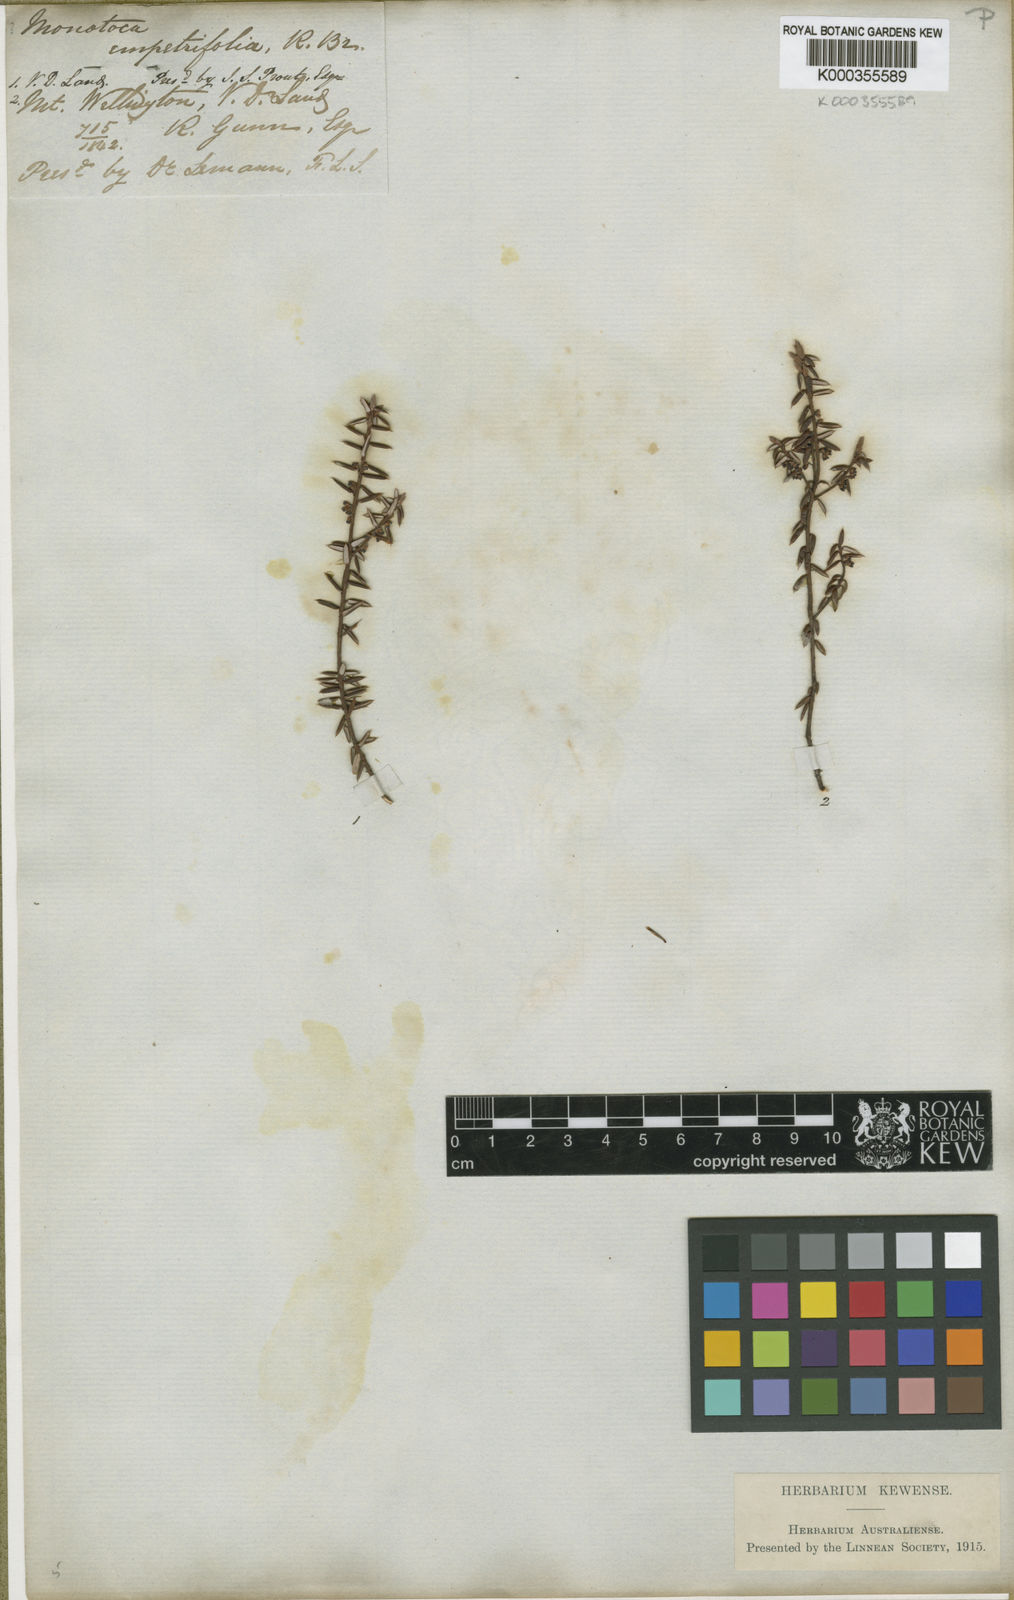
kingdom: Plantae
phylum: Tracheophyta
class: Magnoliopsida
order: Ericales
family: Ericaceae
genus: Monotoca
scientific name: Monotoca empetrifolia
